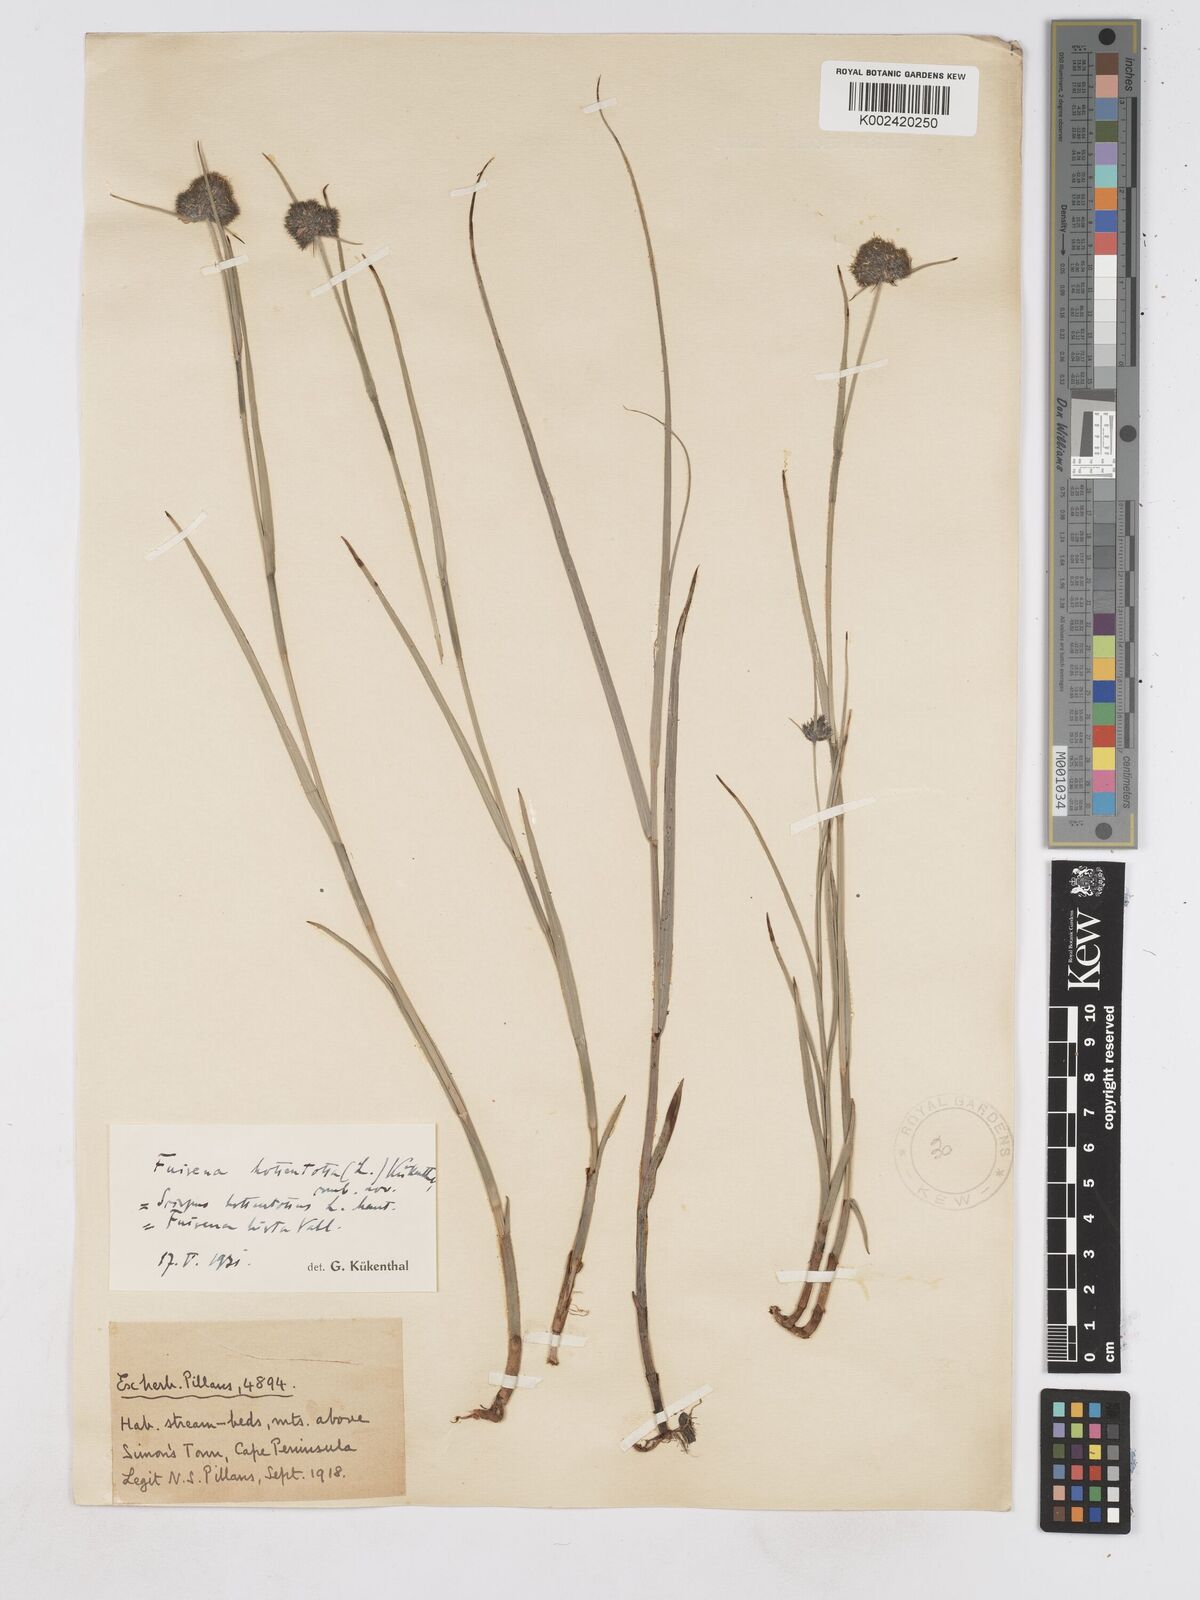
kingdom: Plantae
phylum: Tracheophyta
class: Liliopsida
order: Poales
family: Cyperaceae
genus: Fuirena
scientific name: Fuirena hirsuta
